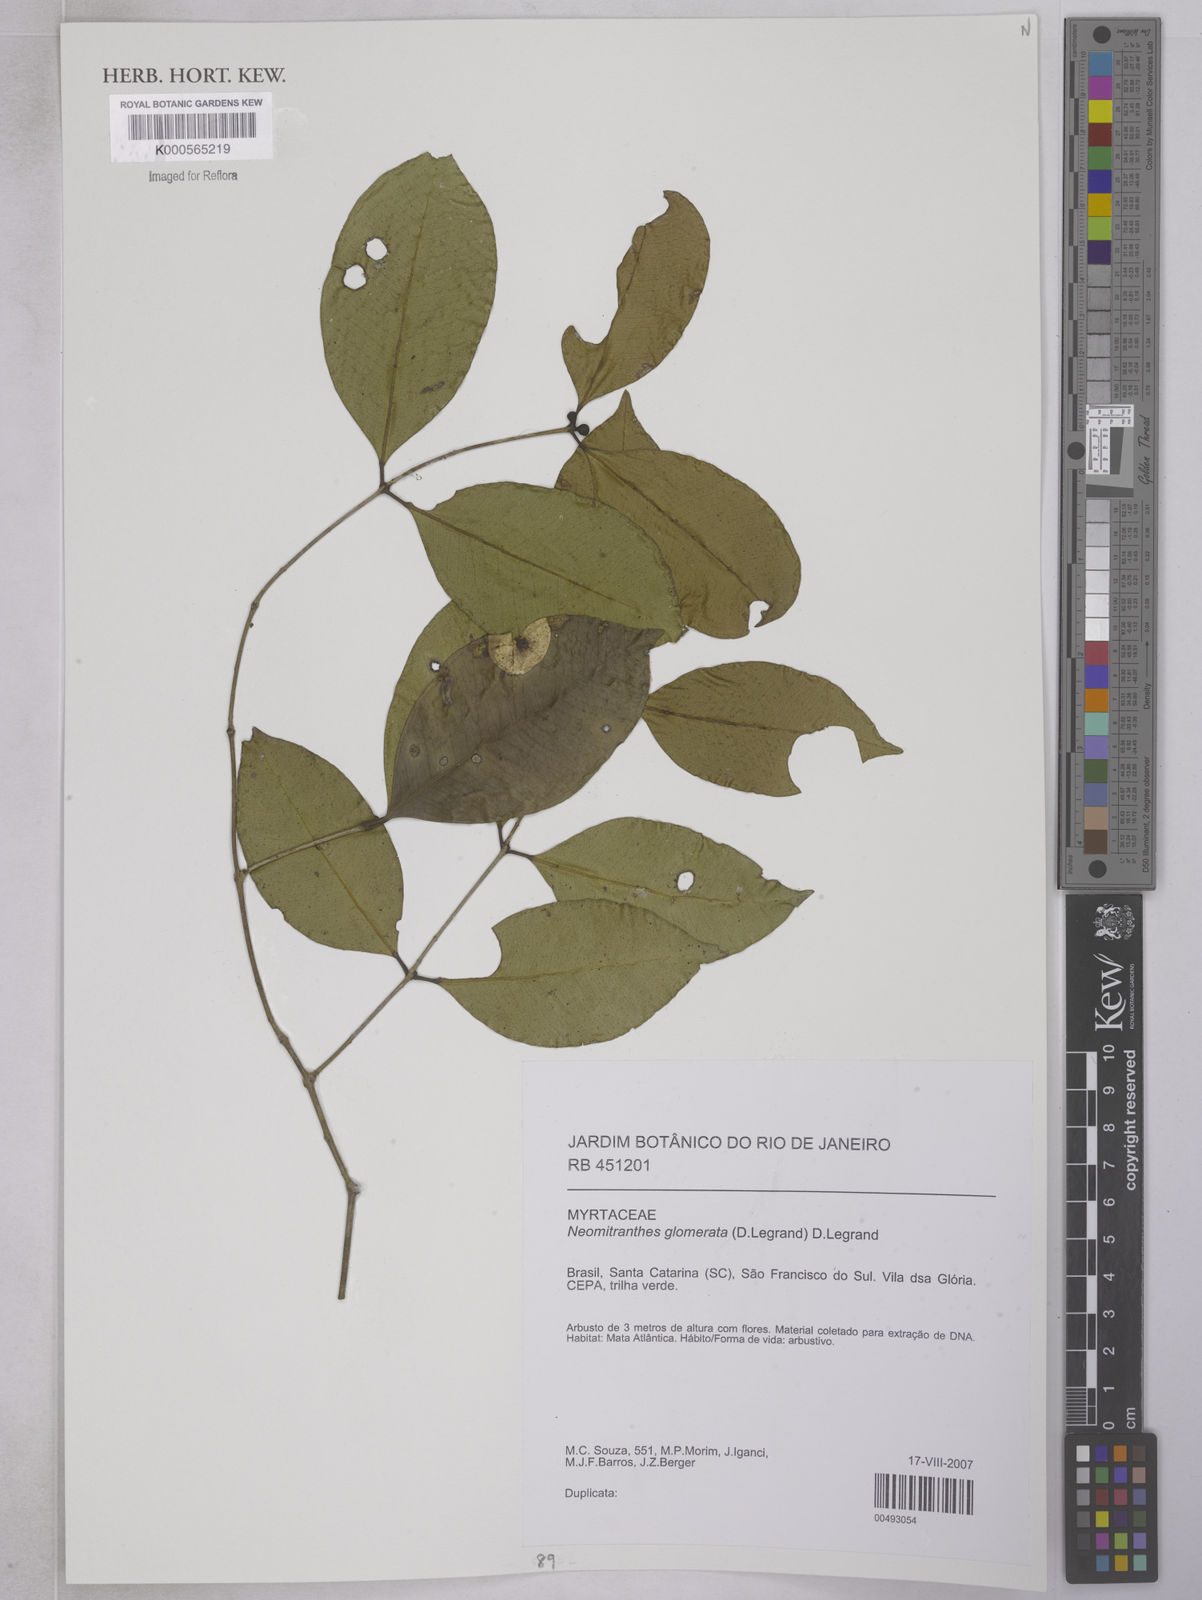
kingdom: Plantae
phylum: Tracheophyta
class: Magnoliopsida
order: Myrtales
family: Myrtaceae
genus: Neomitranthes
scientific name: Neomitranthes
